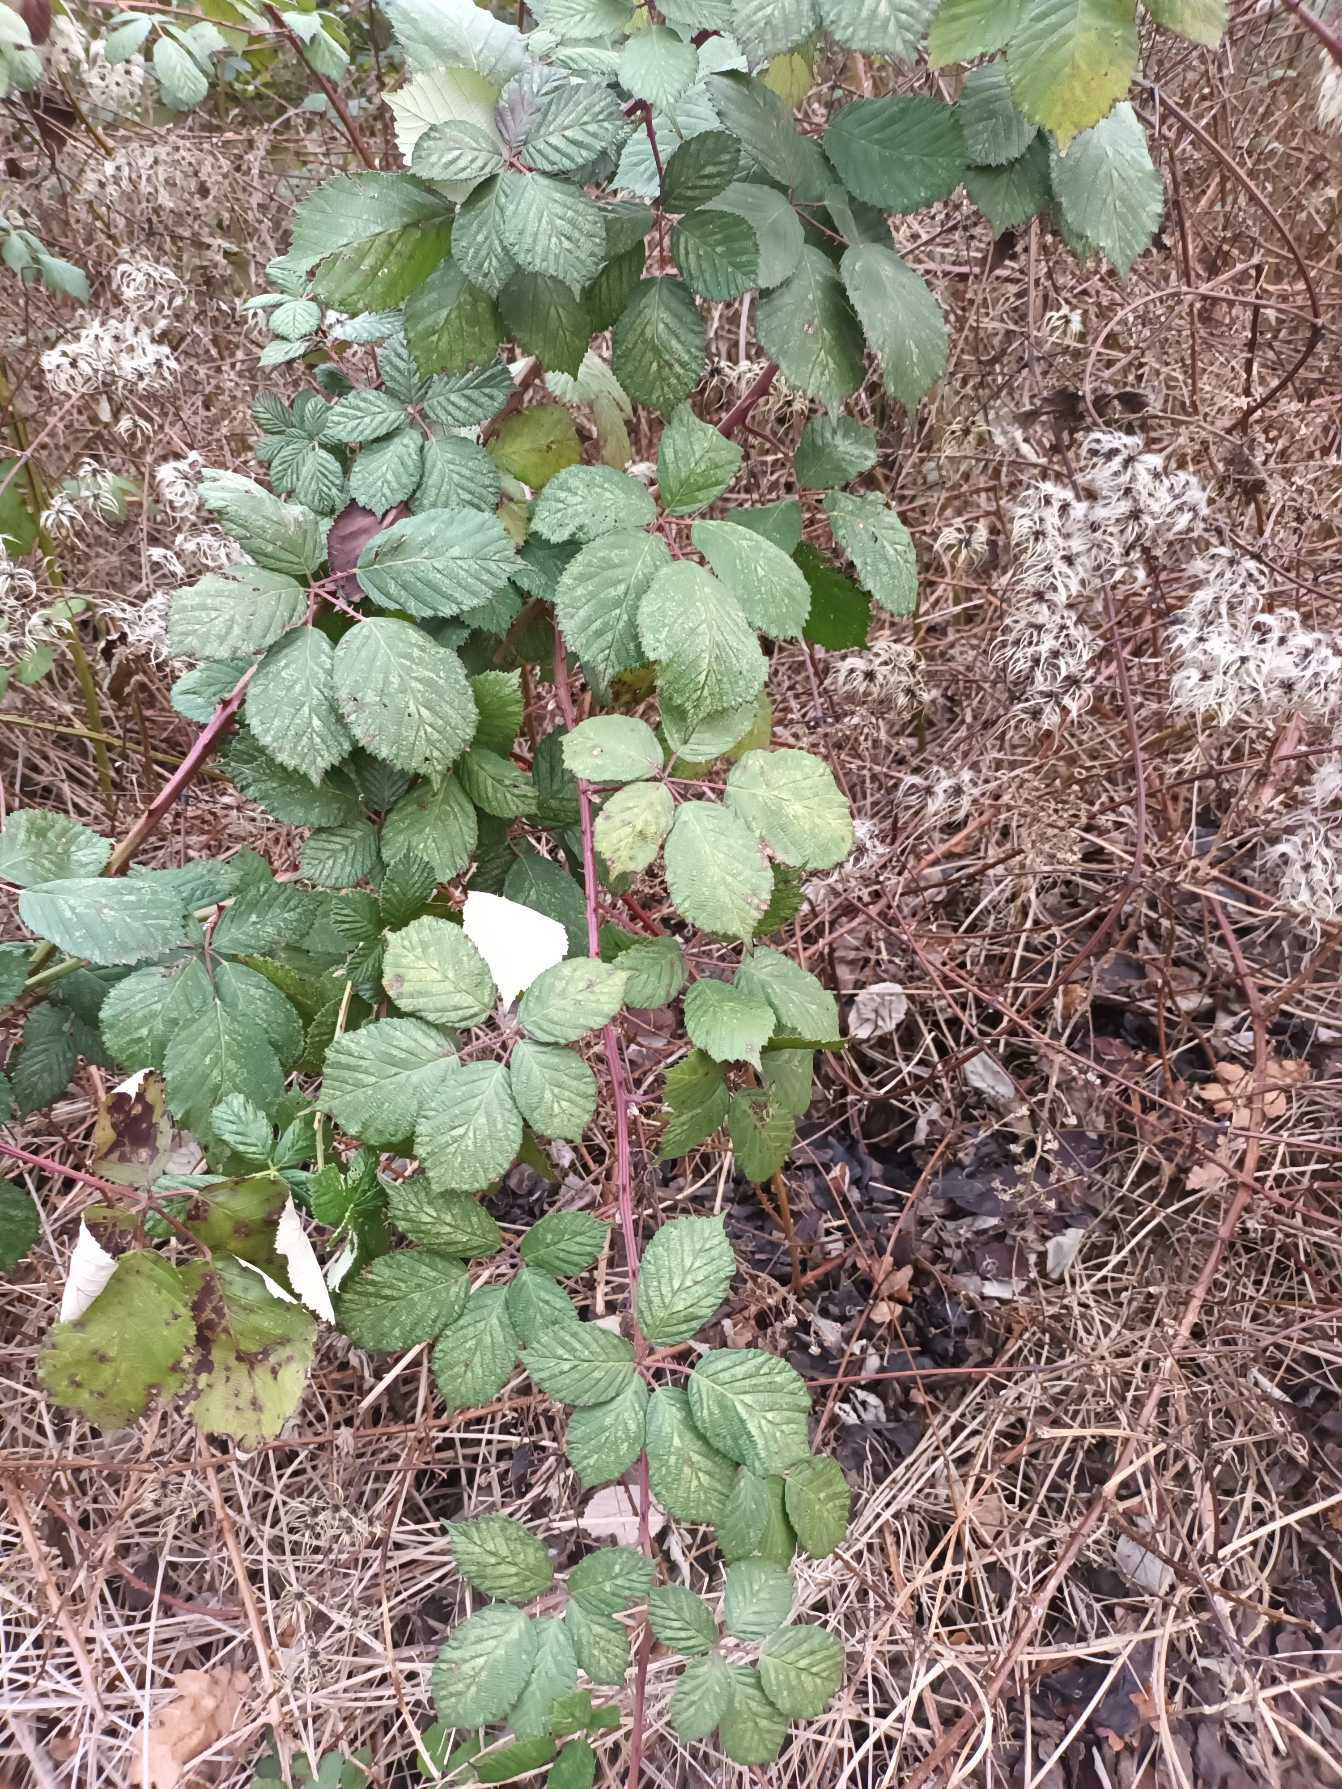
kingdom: Plantae
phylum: Tracheophyta
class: Magnoliopsida
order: Rosales
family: Rosaceae
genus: Rubus
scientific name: Rubus armeniacus
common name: Armensk brombær
